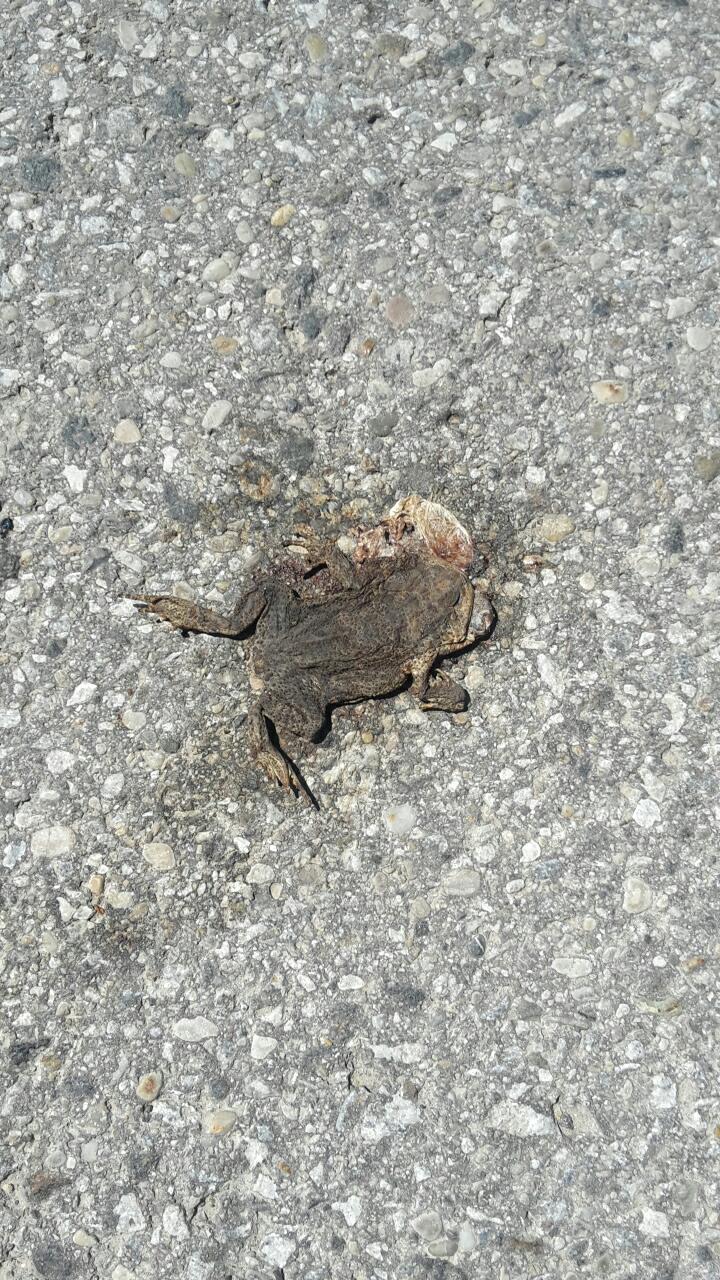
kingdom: Animalia
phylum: Chordata
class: Amphibia
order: Anura
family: Bufonidae
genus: Bufo
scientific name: Bufo bufo
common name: Common toad
